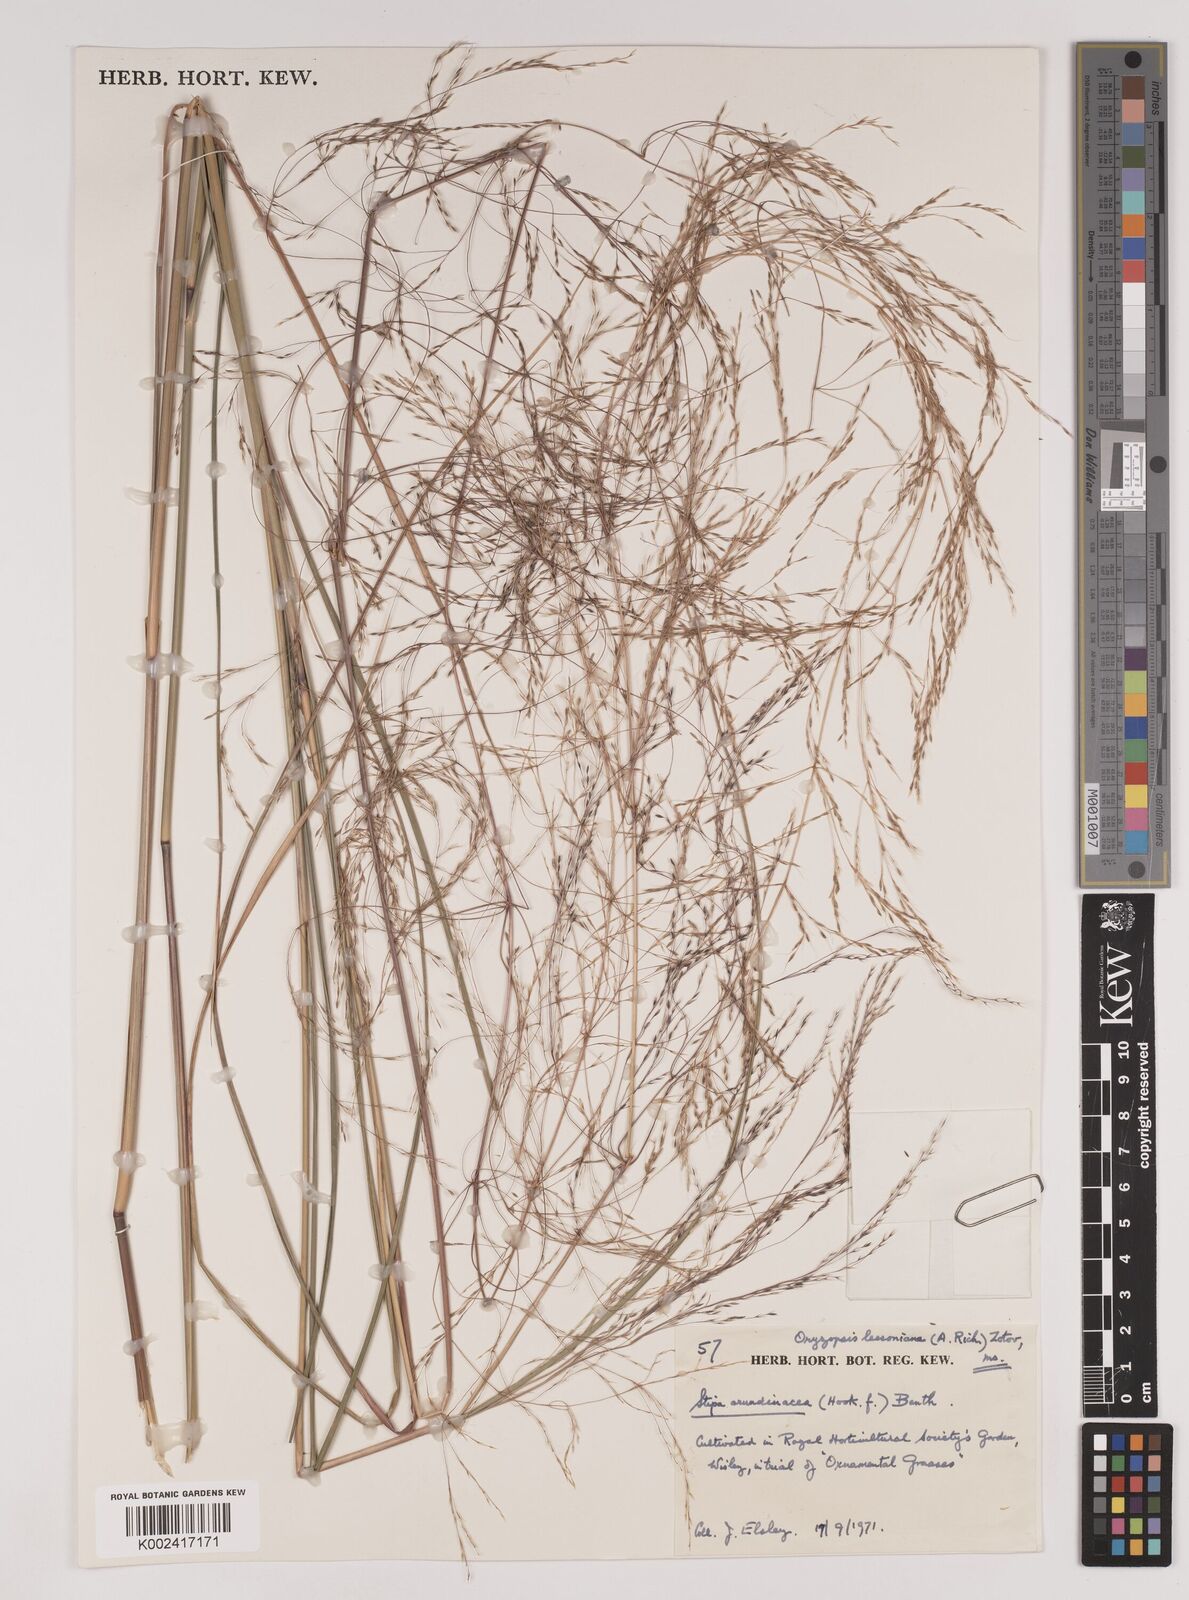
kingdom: Plantae
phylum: Tracheophyta
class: Liliopsida
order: Poales
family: Poaceae
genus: Stipa
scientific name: Stipa
